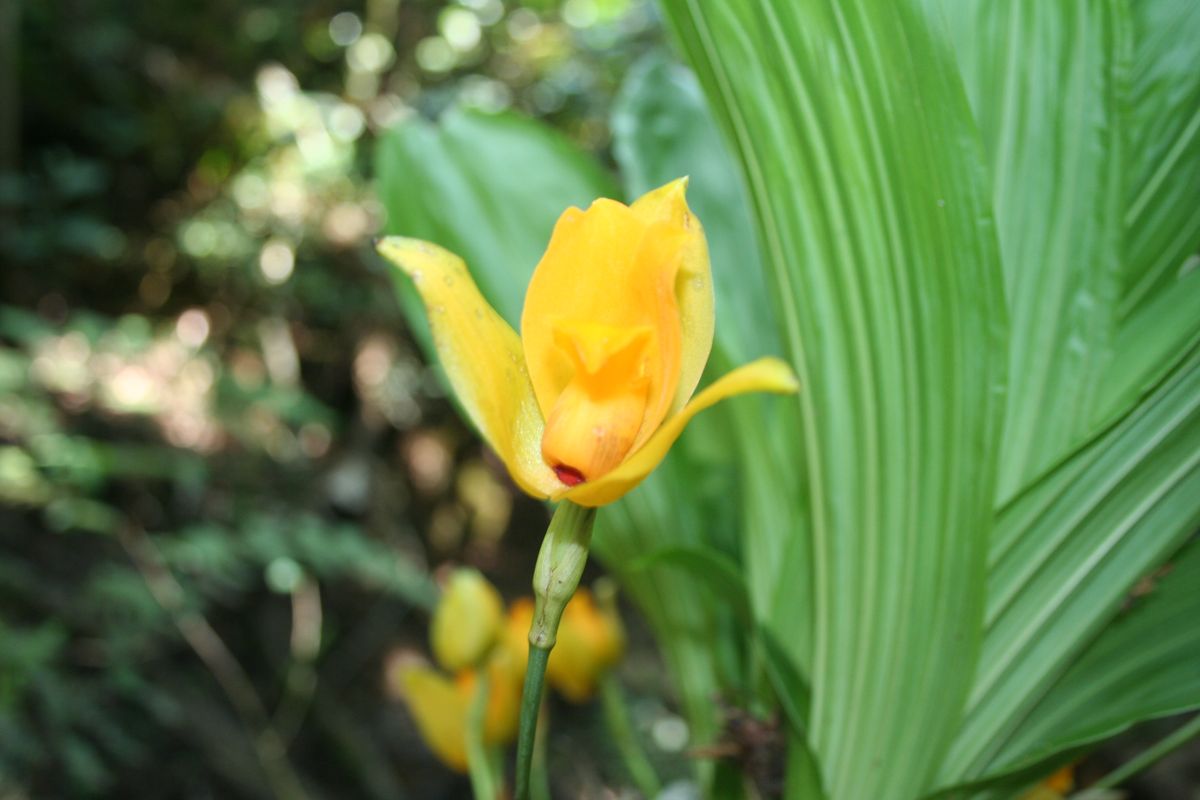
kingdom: Plantae
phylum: Tracheophyta
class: Liliopsida
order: Asparagales
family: Orchidaceae
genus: Lycaste
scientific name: Lycaste aromatica
